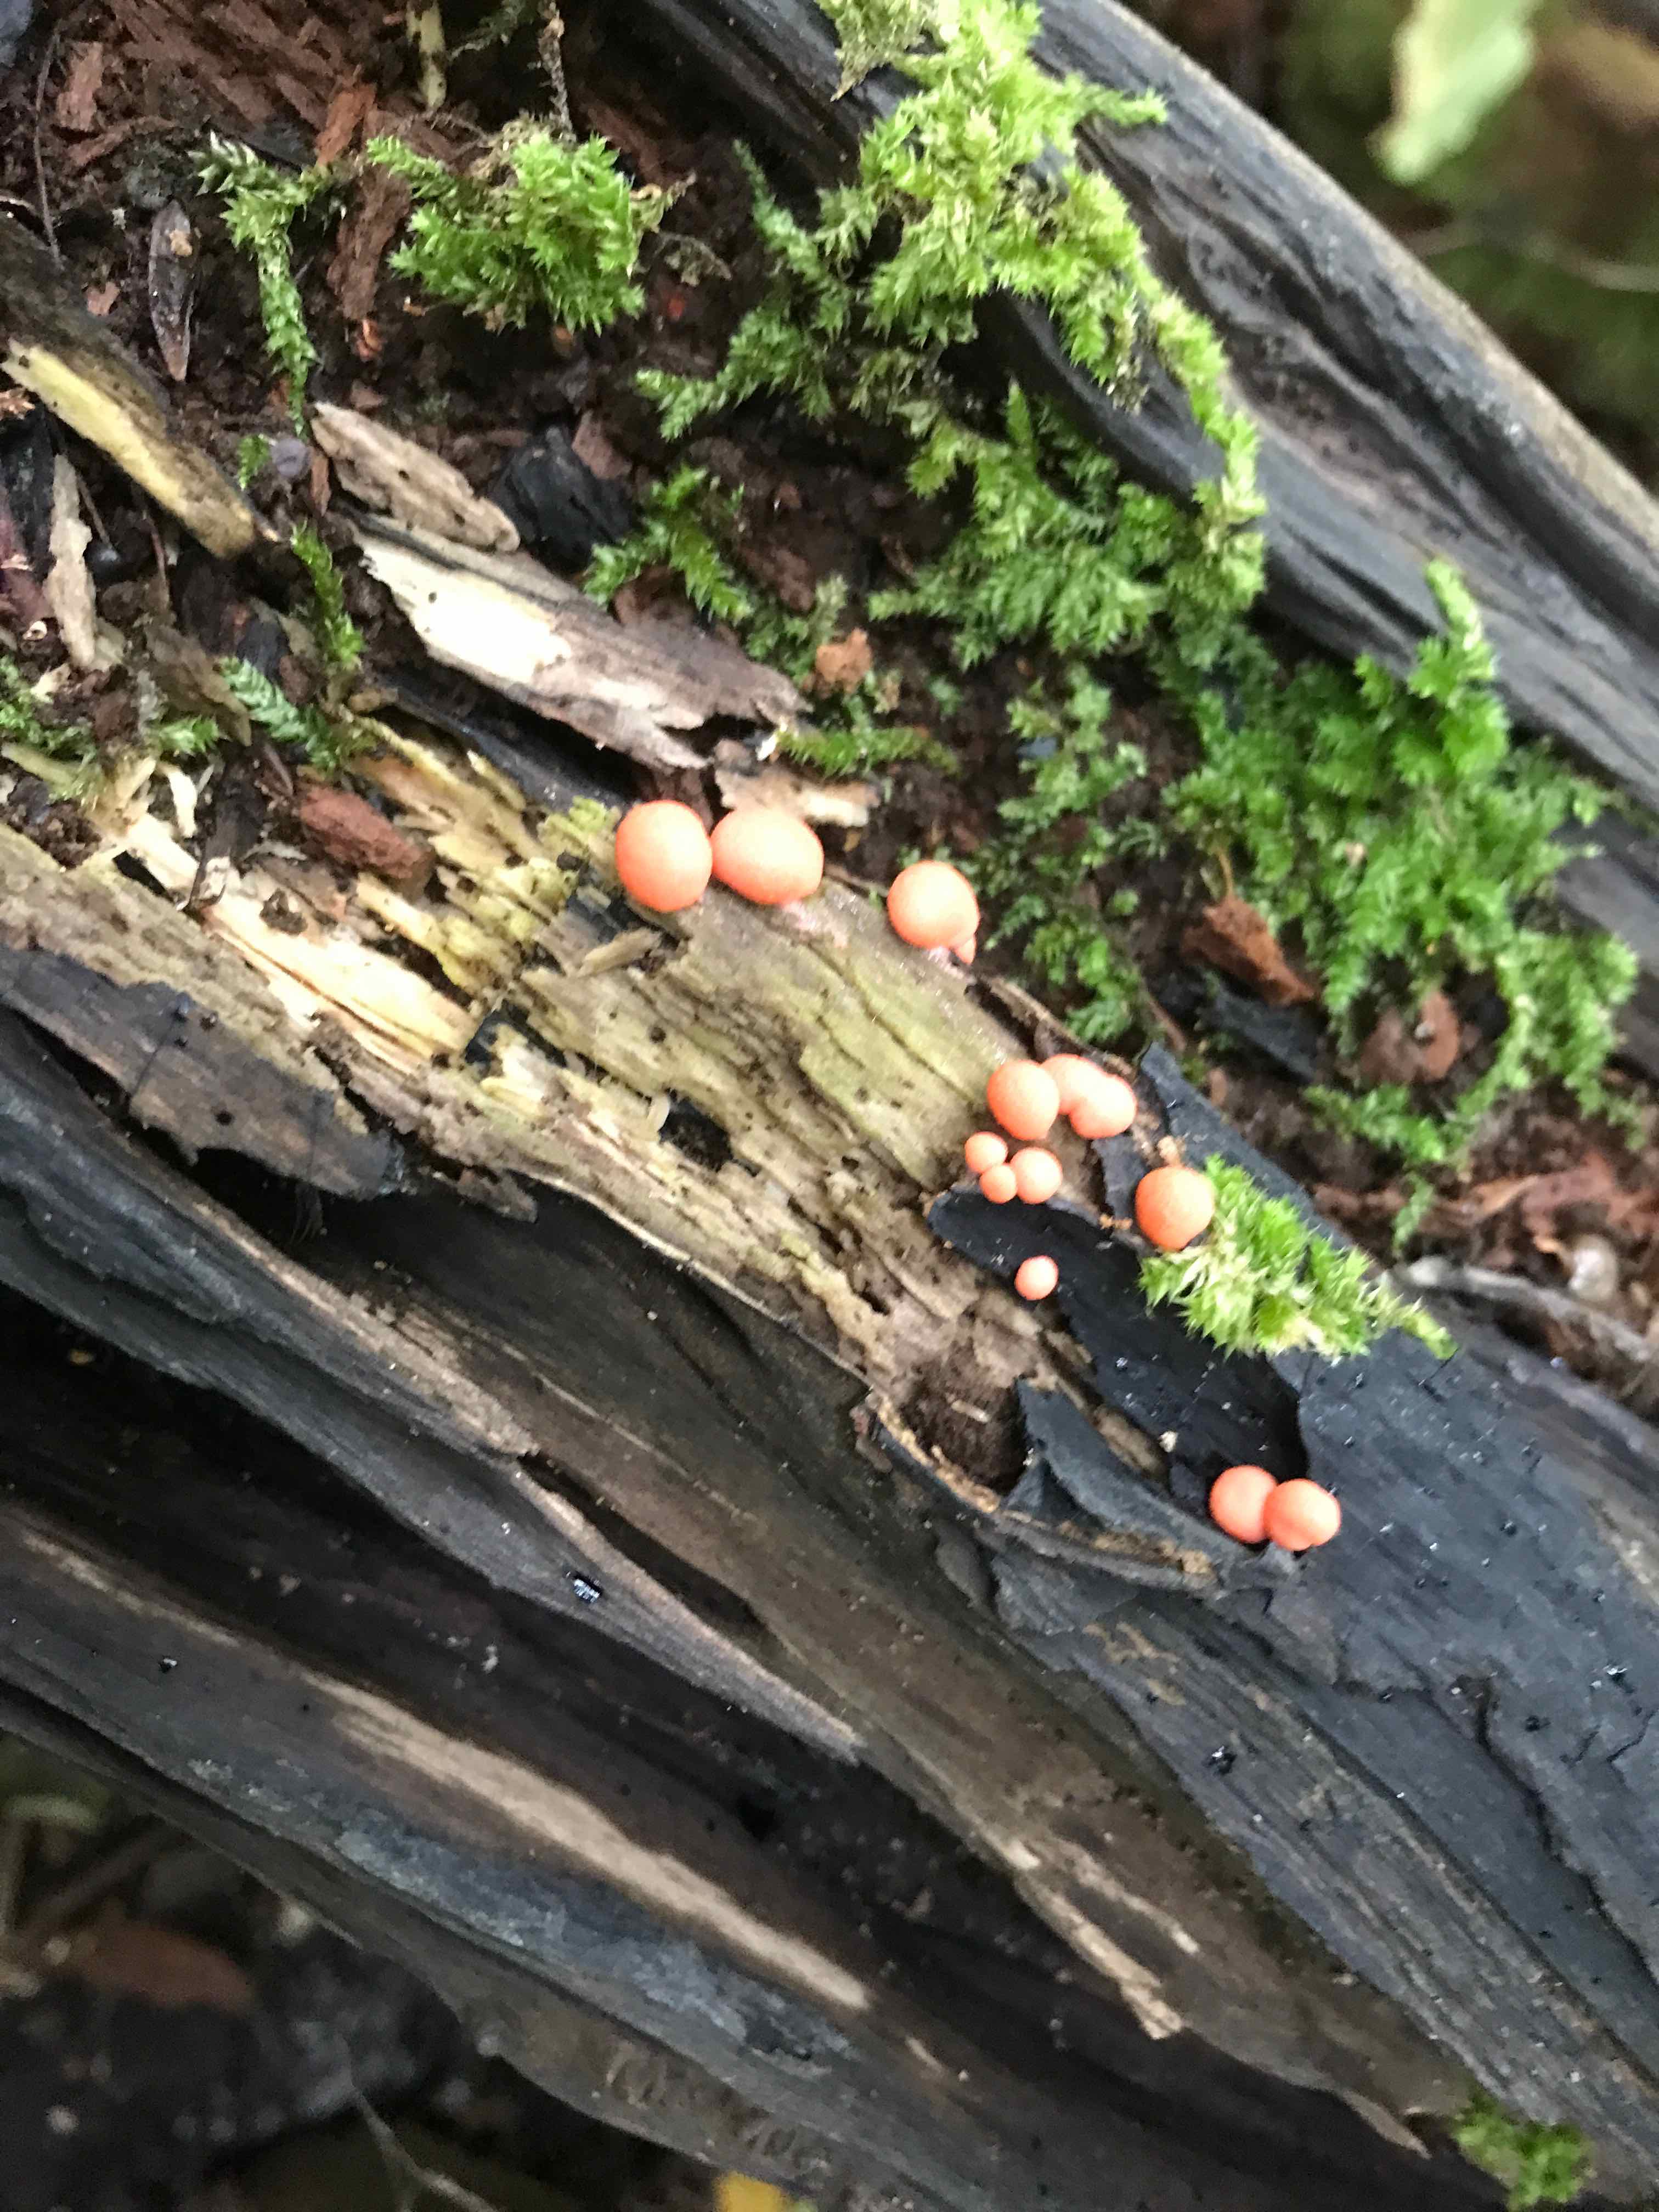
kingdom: Protozoa
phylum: Mycetozoa
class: Myxomycetes
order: Cribrariales
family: Tubiferaceae
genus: Lycogala
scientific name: Lycogala epidendrum
